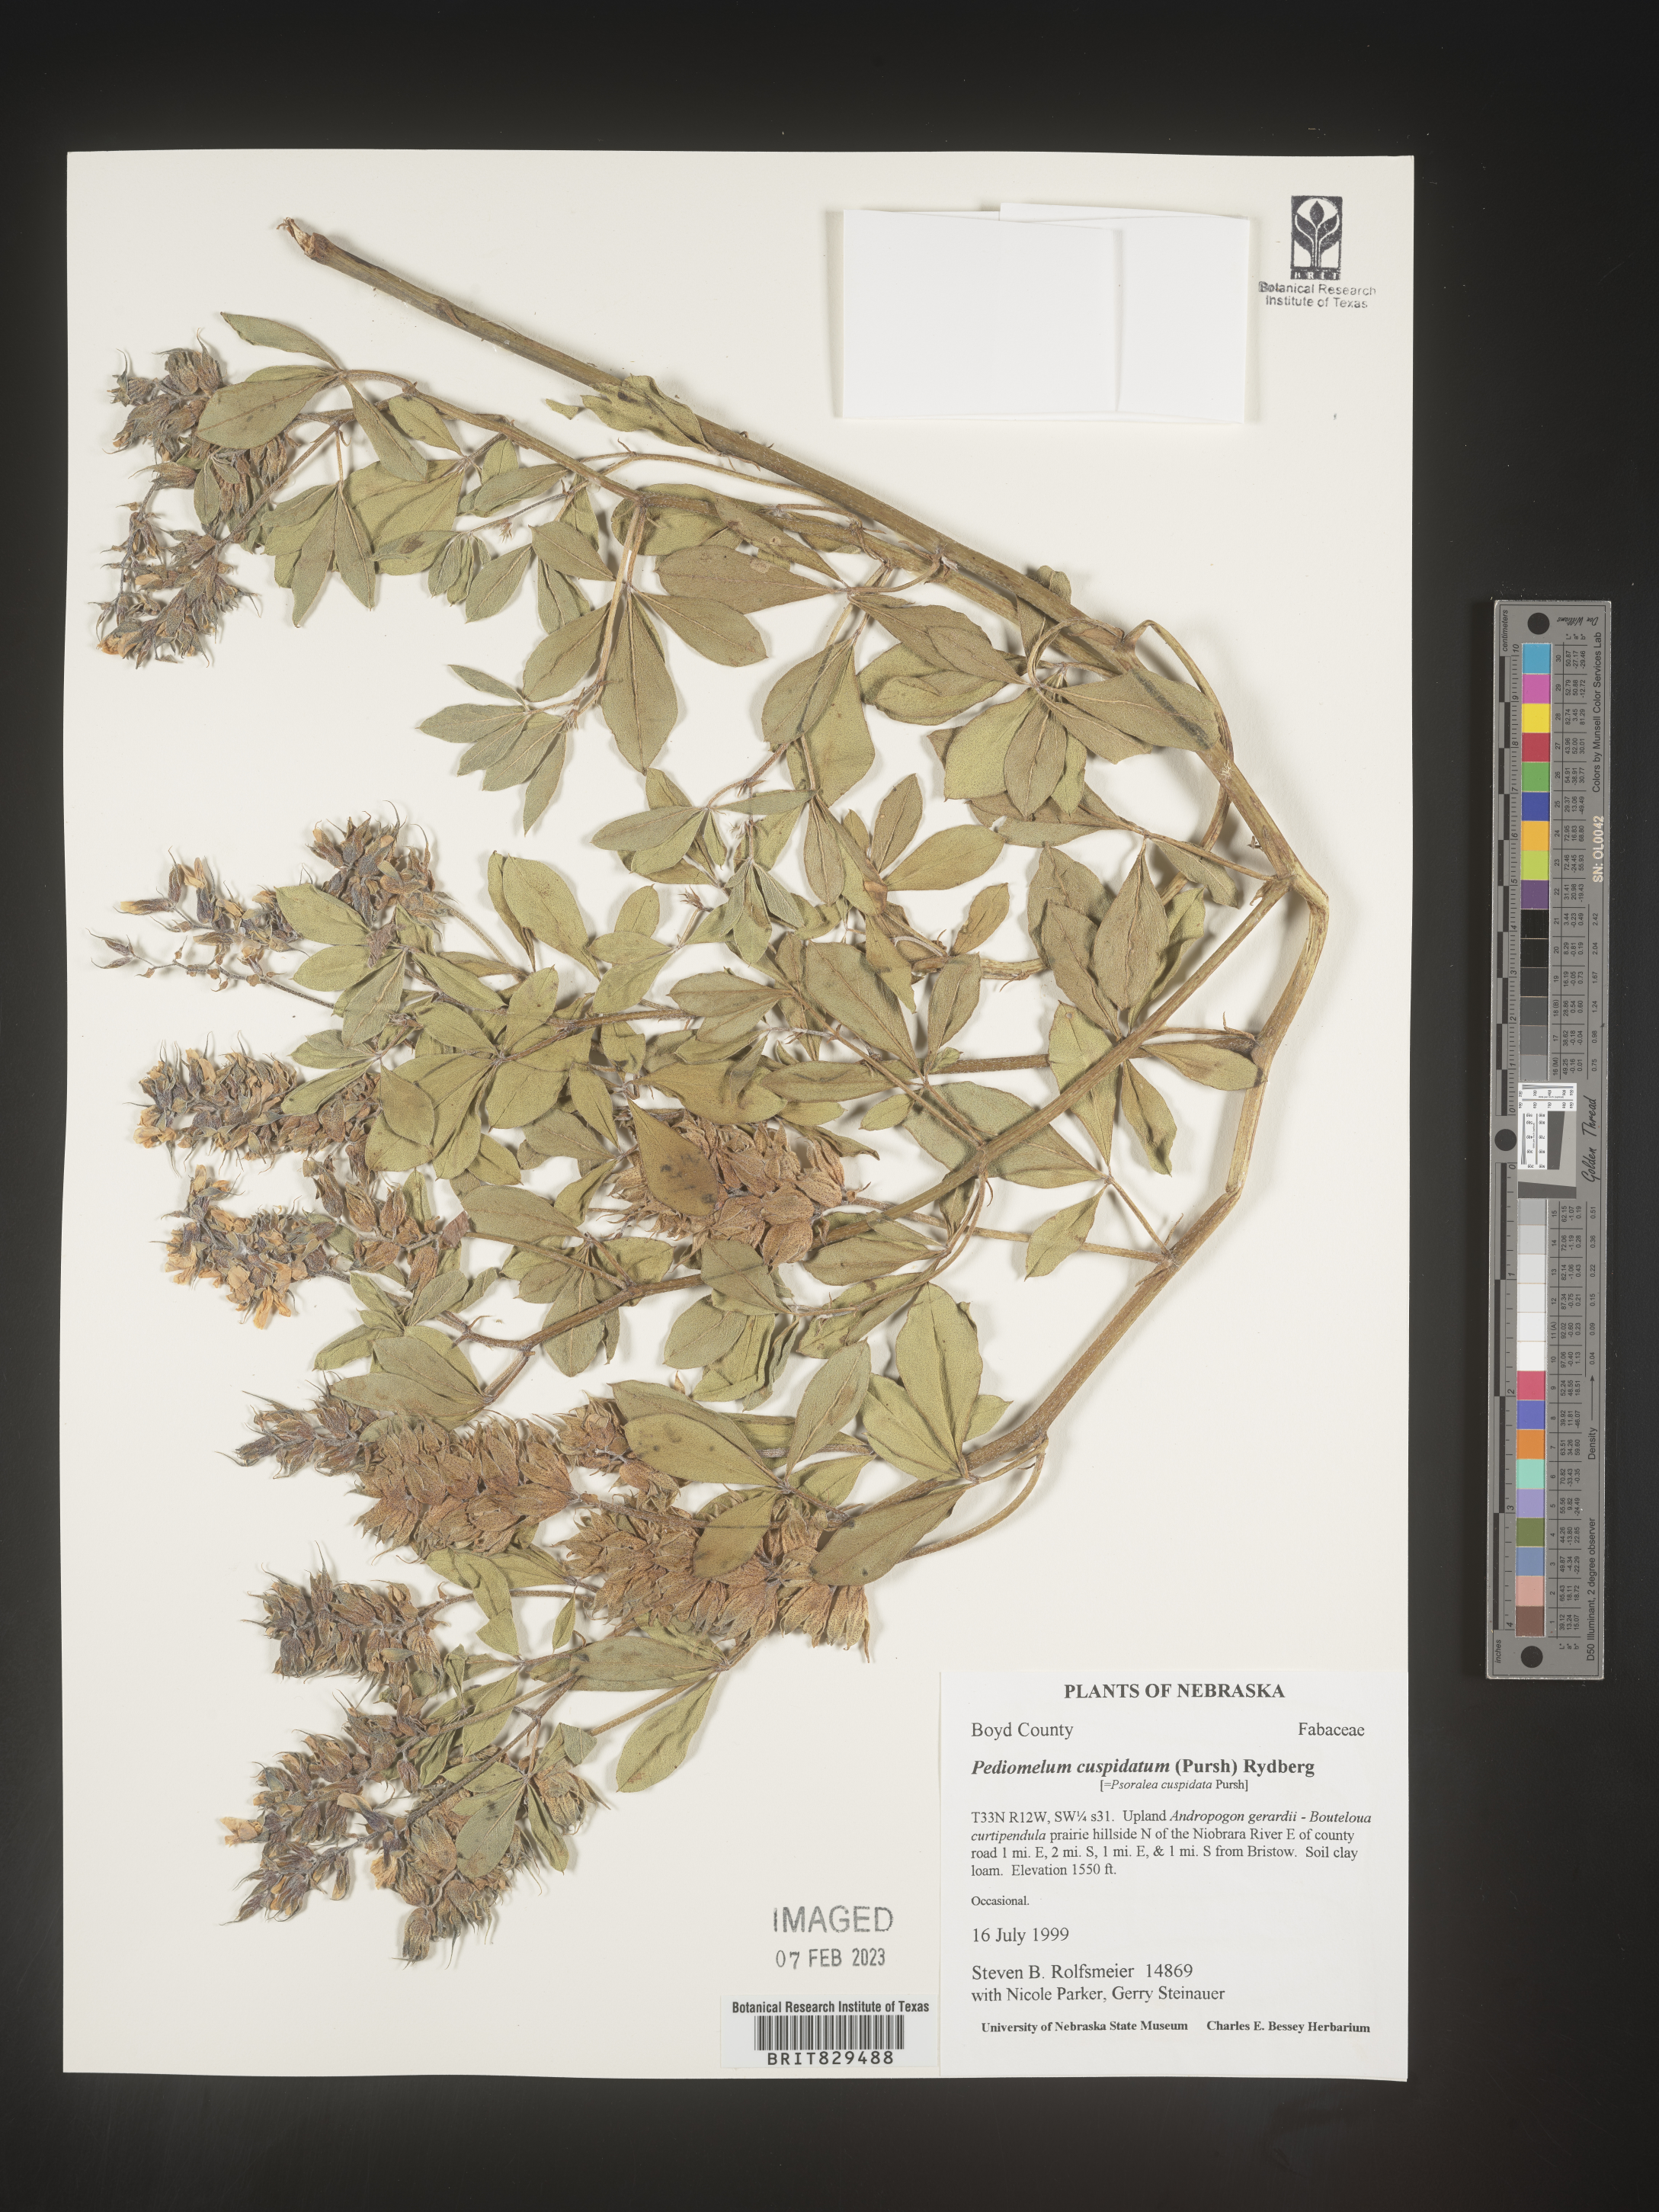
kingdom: Plantae
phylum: Tracheophyta
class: Magnoliopsida
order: Fabales
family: Fabaceae
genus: Pediomelum
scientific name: Pediomelum cuspidatum
